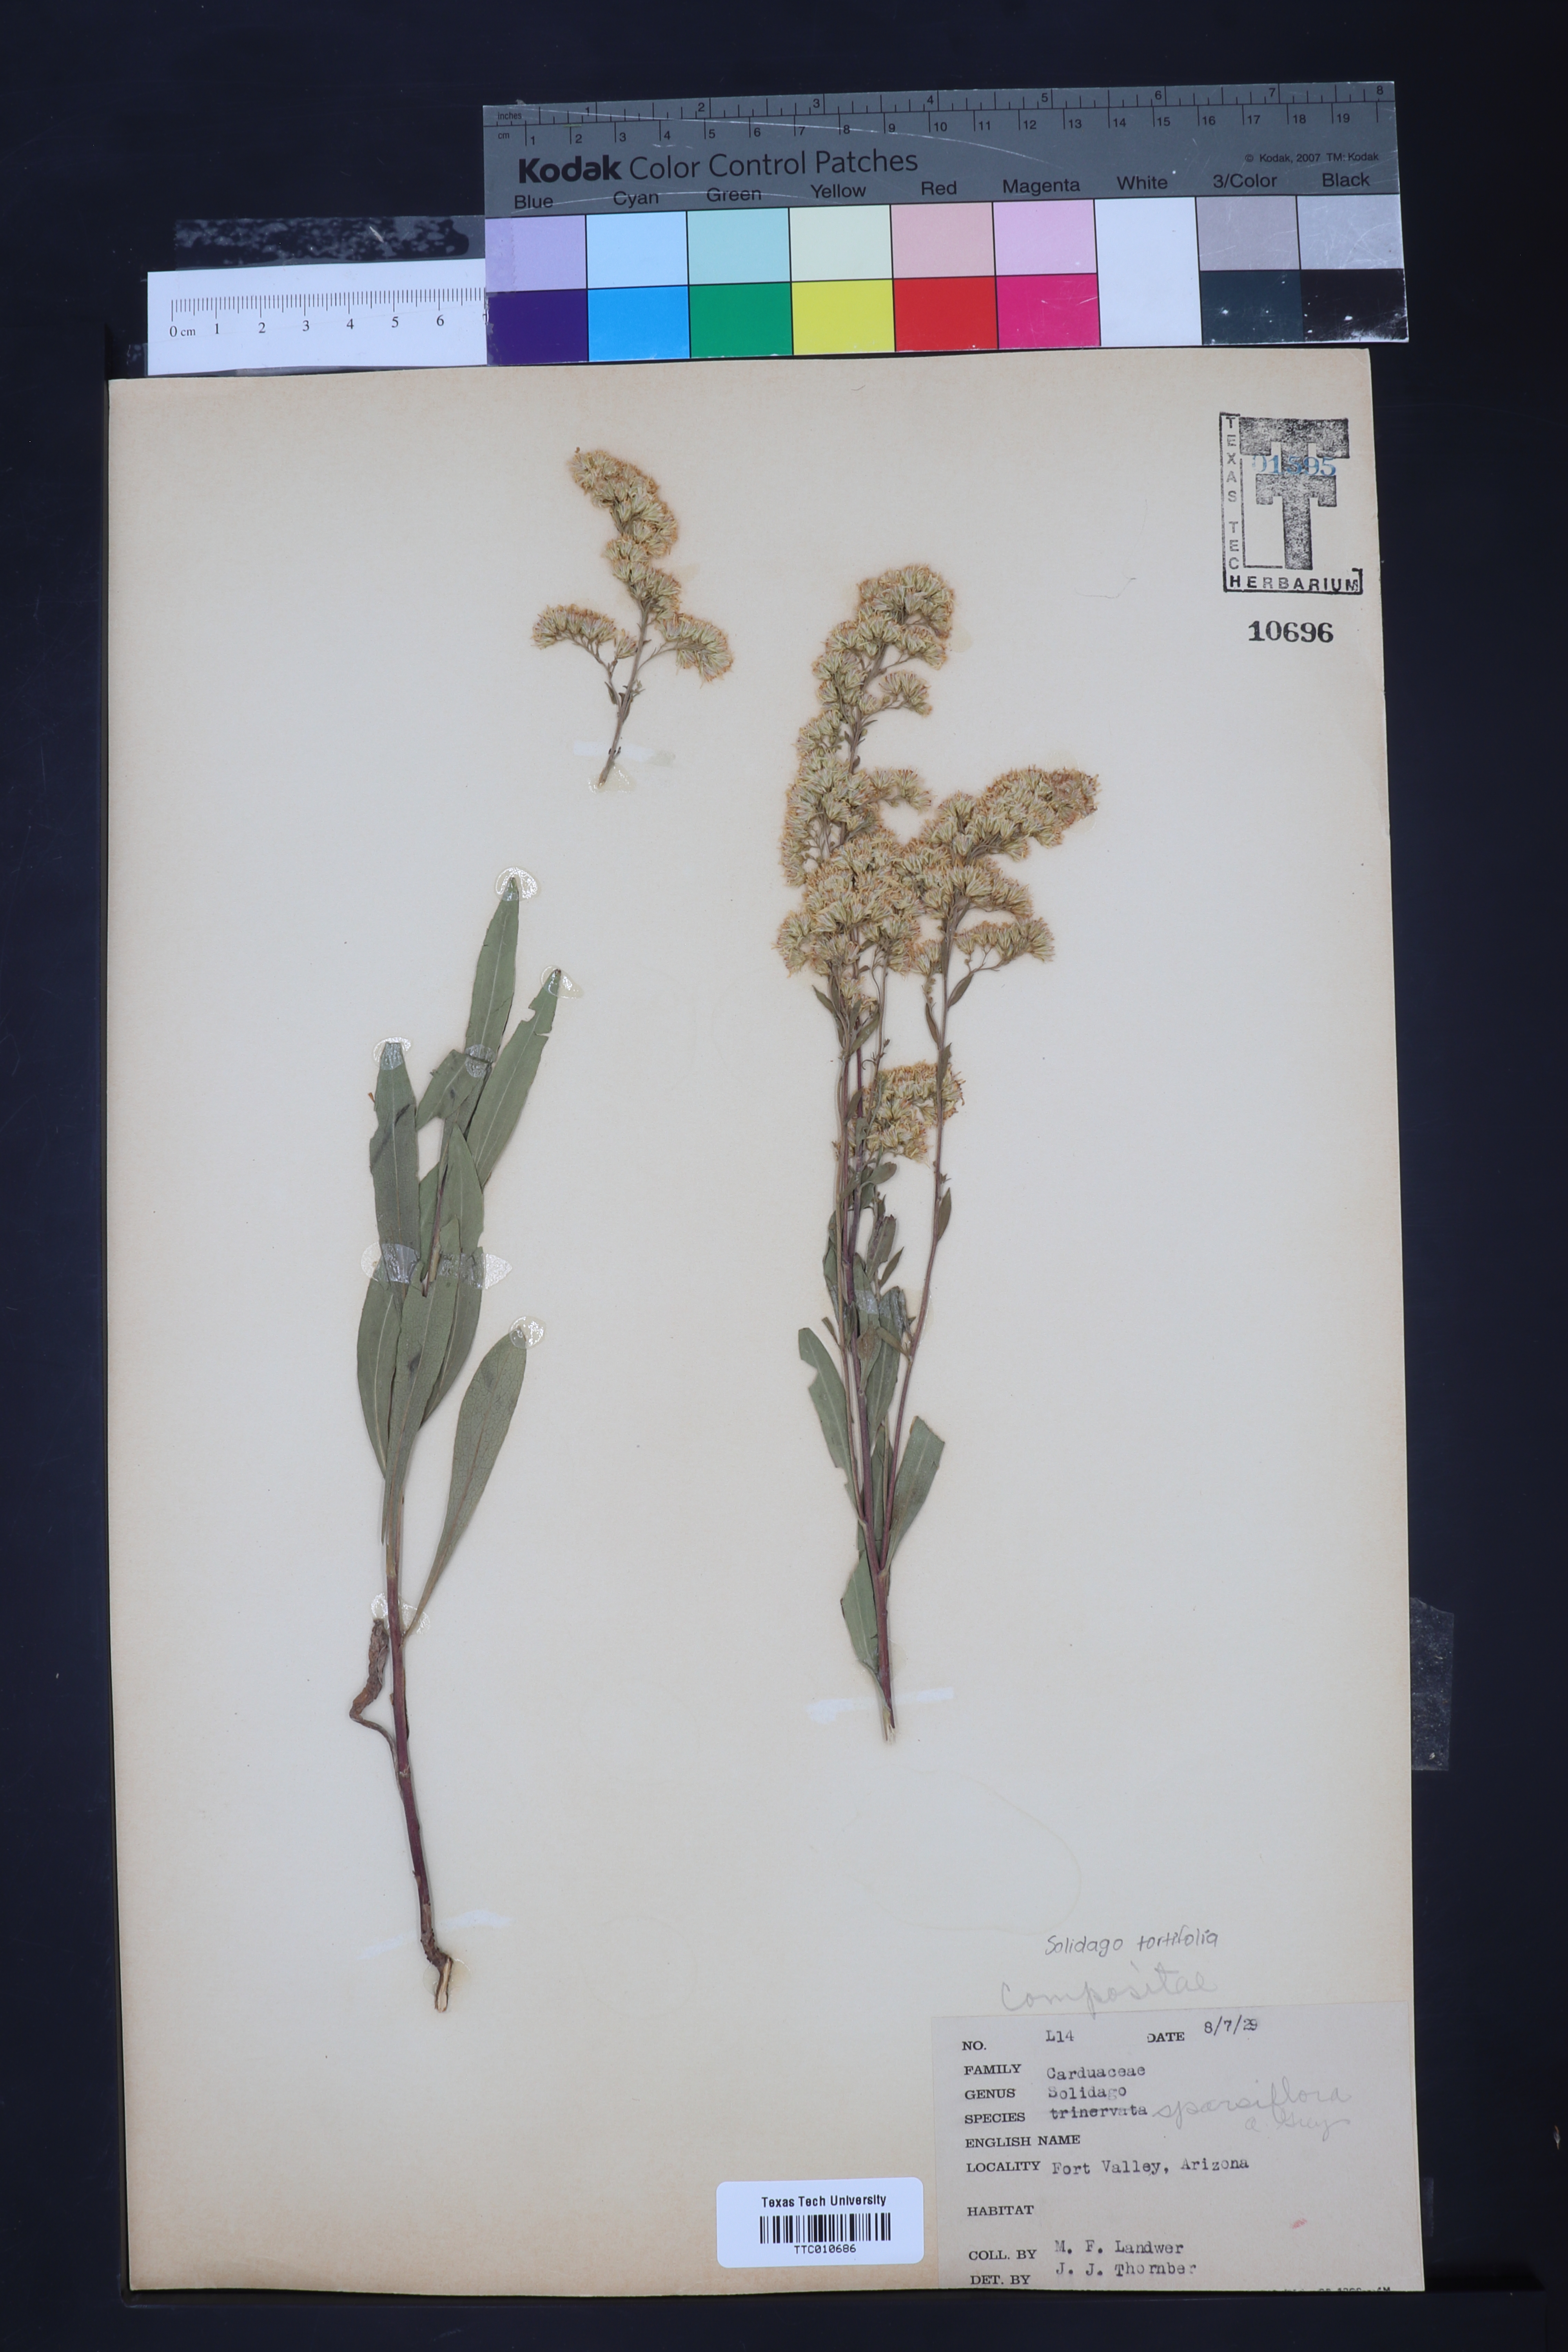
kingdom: Plantae
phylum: Tracheophyta
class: Magnoliopsida
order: Asterales
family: Asteraceae
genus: Solidago
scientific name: Solidago garrettii
